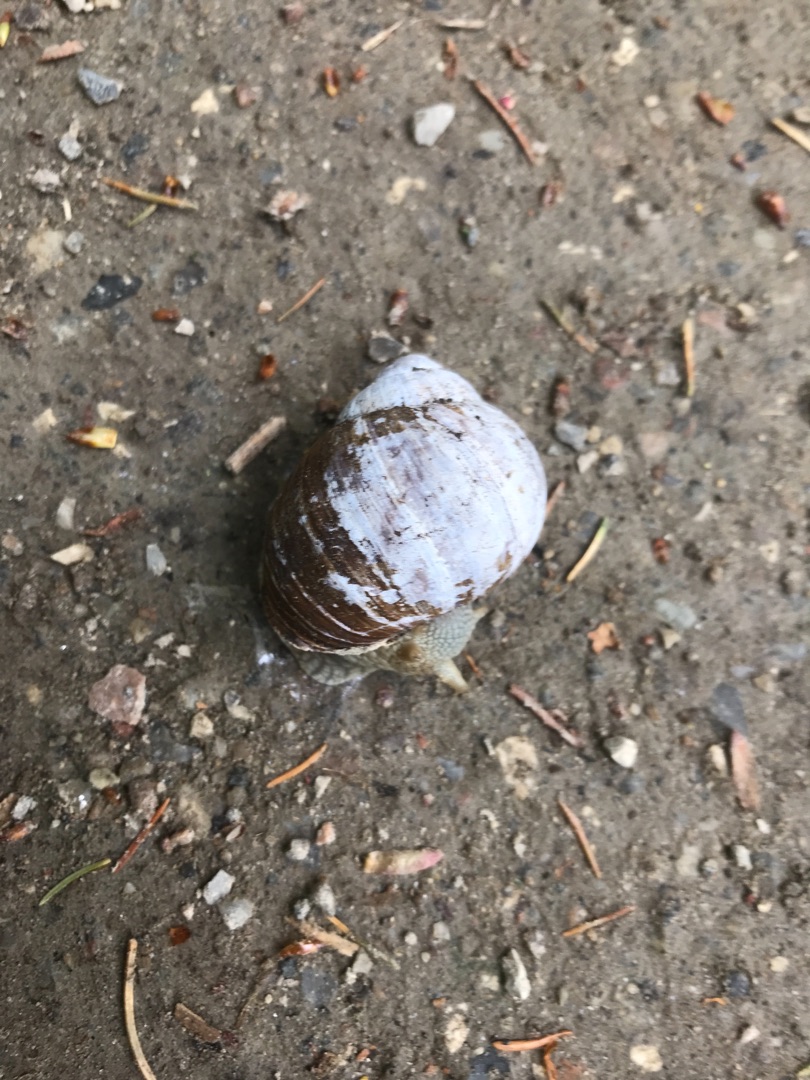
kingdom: Animalia
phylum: Mollusca
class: Gastropoda
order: Stylommatophora
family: Helicidae
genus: Helix
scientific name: Helix pomatia
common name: Vinbjergsnegl
